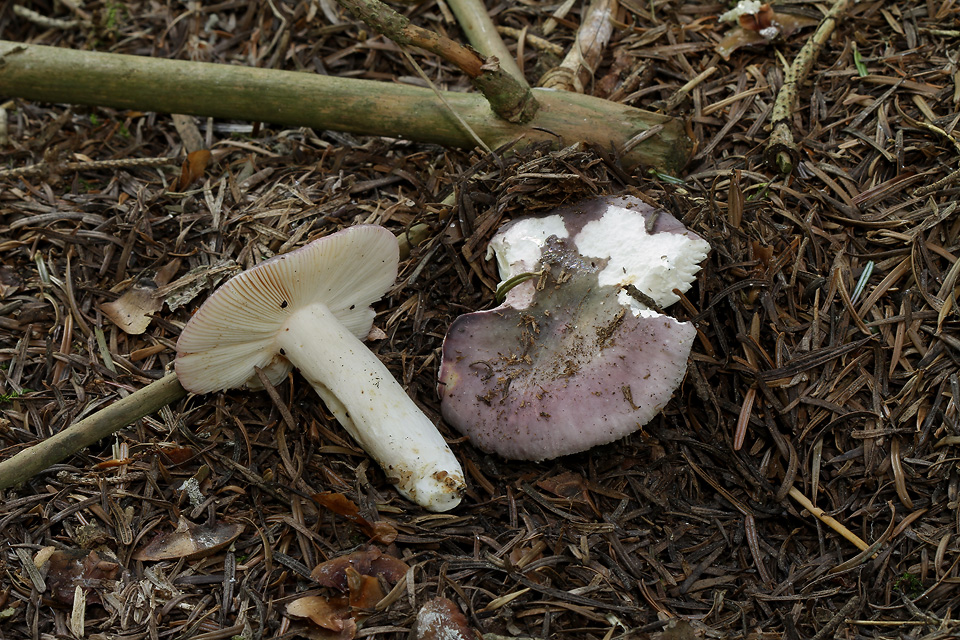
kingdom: Fungi
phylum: Basidiomycota
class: Agaricomycetes
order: Russulales
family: Russulaceae
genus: Russula
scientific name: Russula cyanoxantha
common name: broget skørhat
